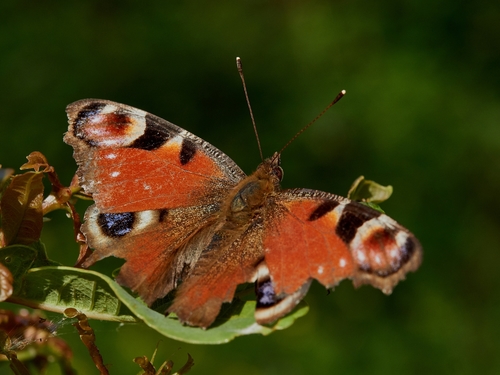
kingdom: Animalia
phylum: Arthropoda
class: Insecta
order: Lepidoptera
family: Nymphalidae
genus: Aglais
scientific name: Aglais io
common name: Peacock
